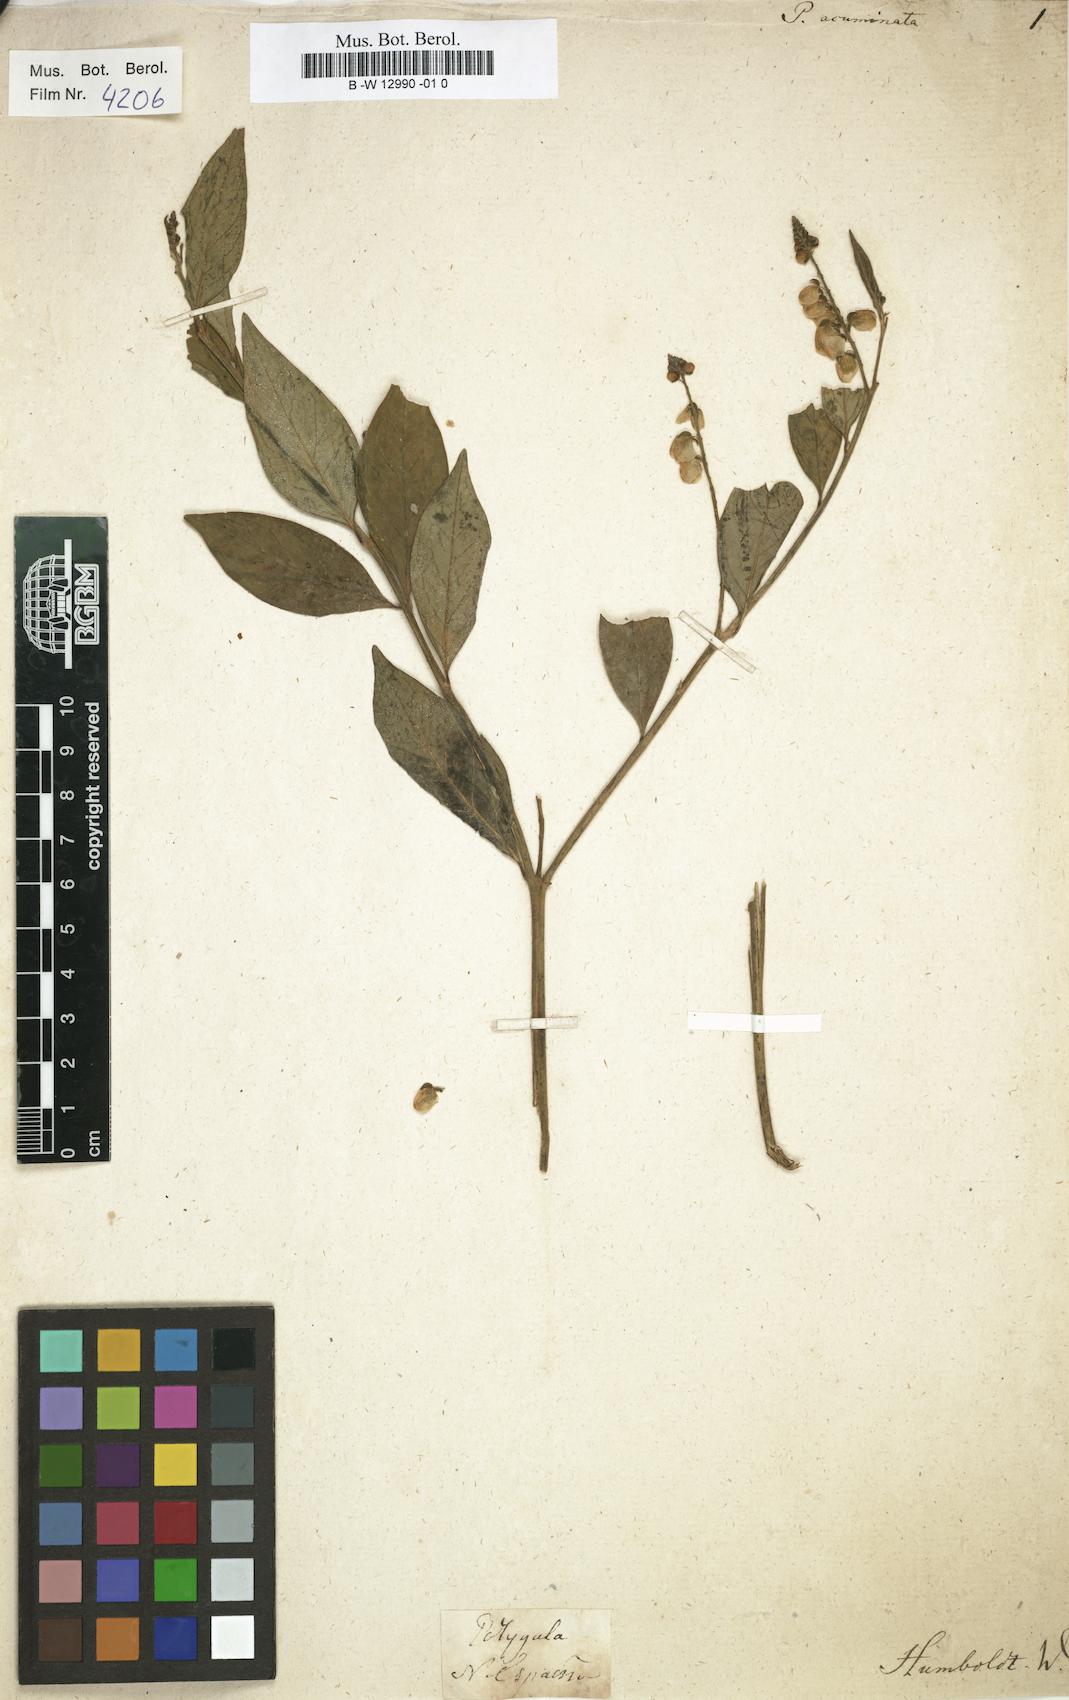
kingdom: Plantae
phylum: Tracheophyta
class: Magnoliopsida
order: Fabales
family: Polygalaceae
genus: Asemeia
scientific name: Asemeia acuminata
